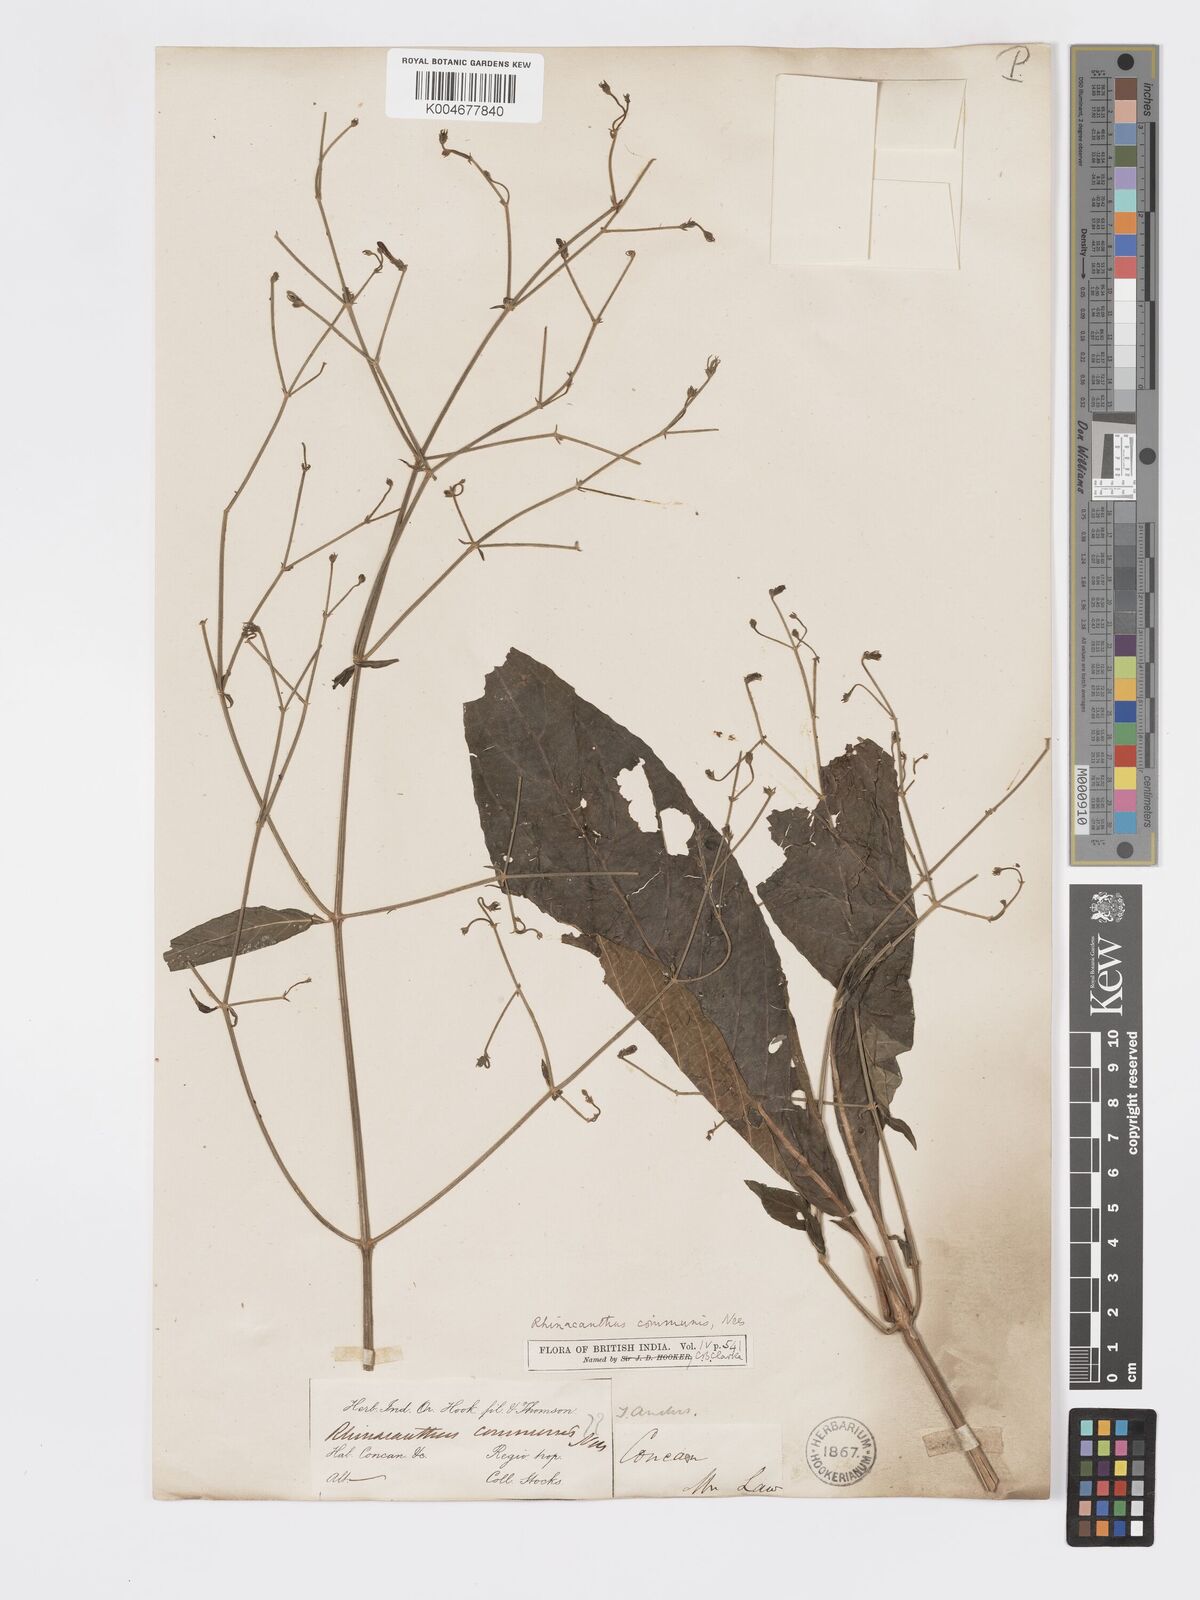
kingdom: Plantae
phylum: Tracheophyta
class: Magnoliopsida
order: Lamiales
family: Acanthaceae
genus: Rhinacanthus
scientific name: Rhinacanthus nasutus
